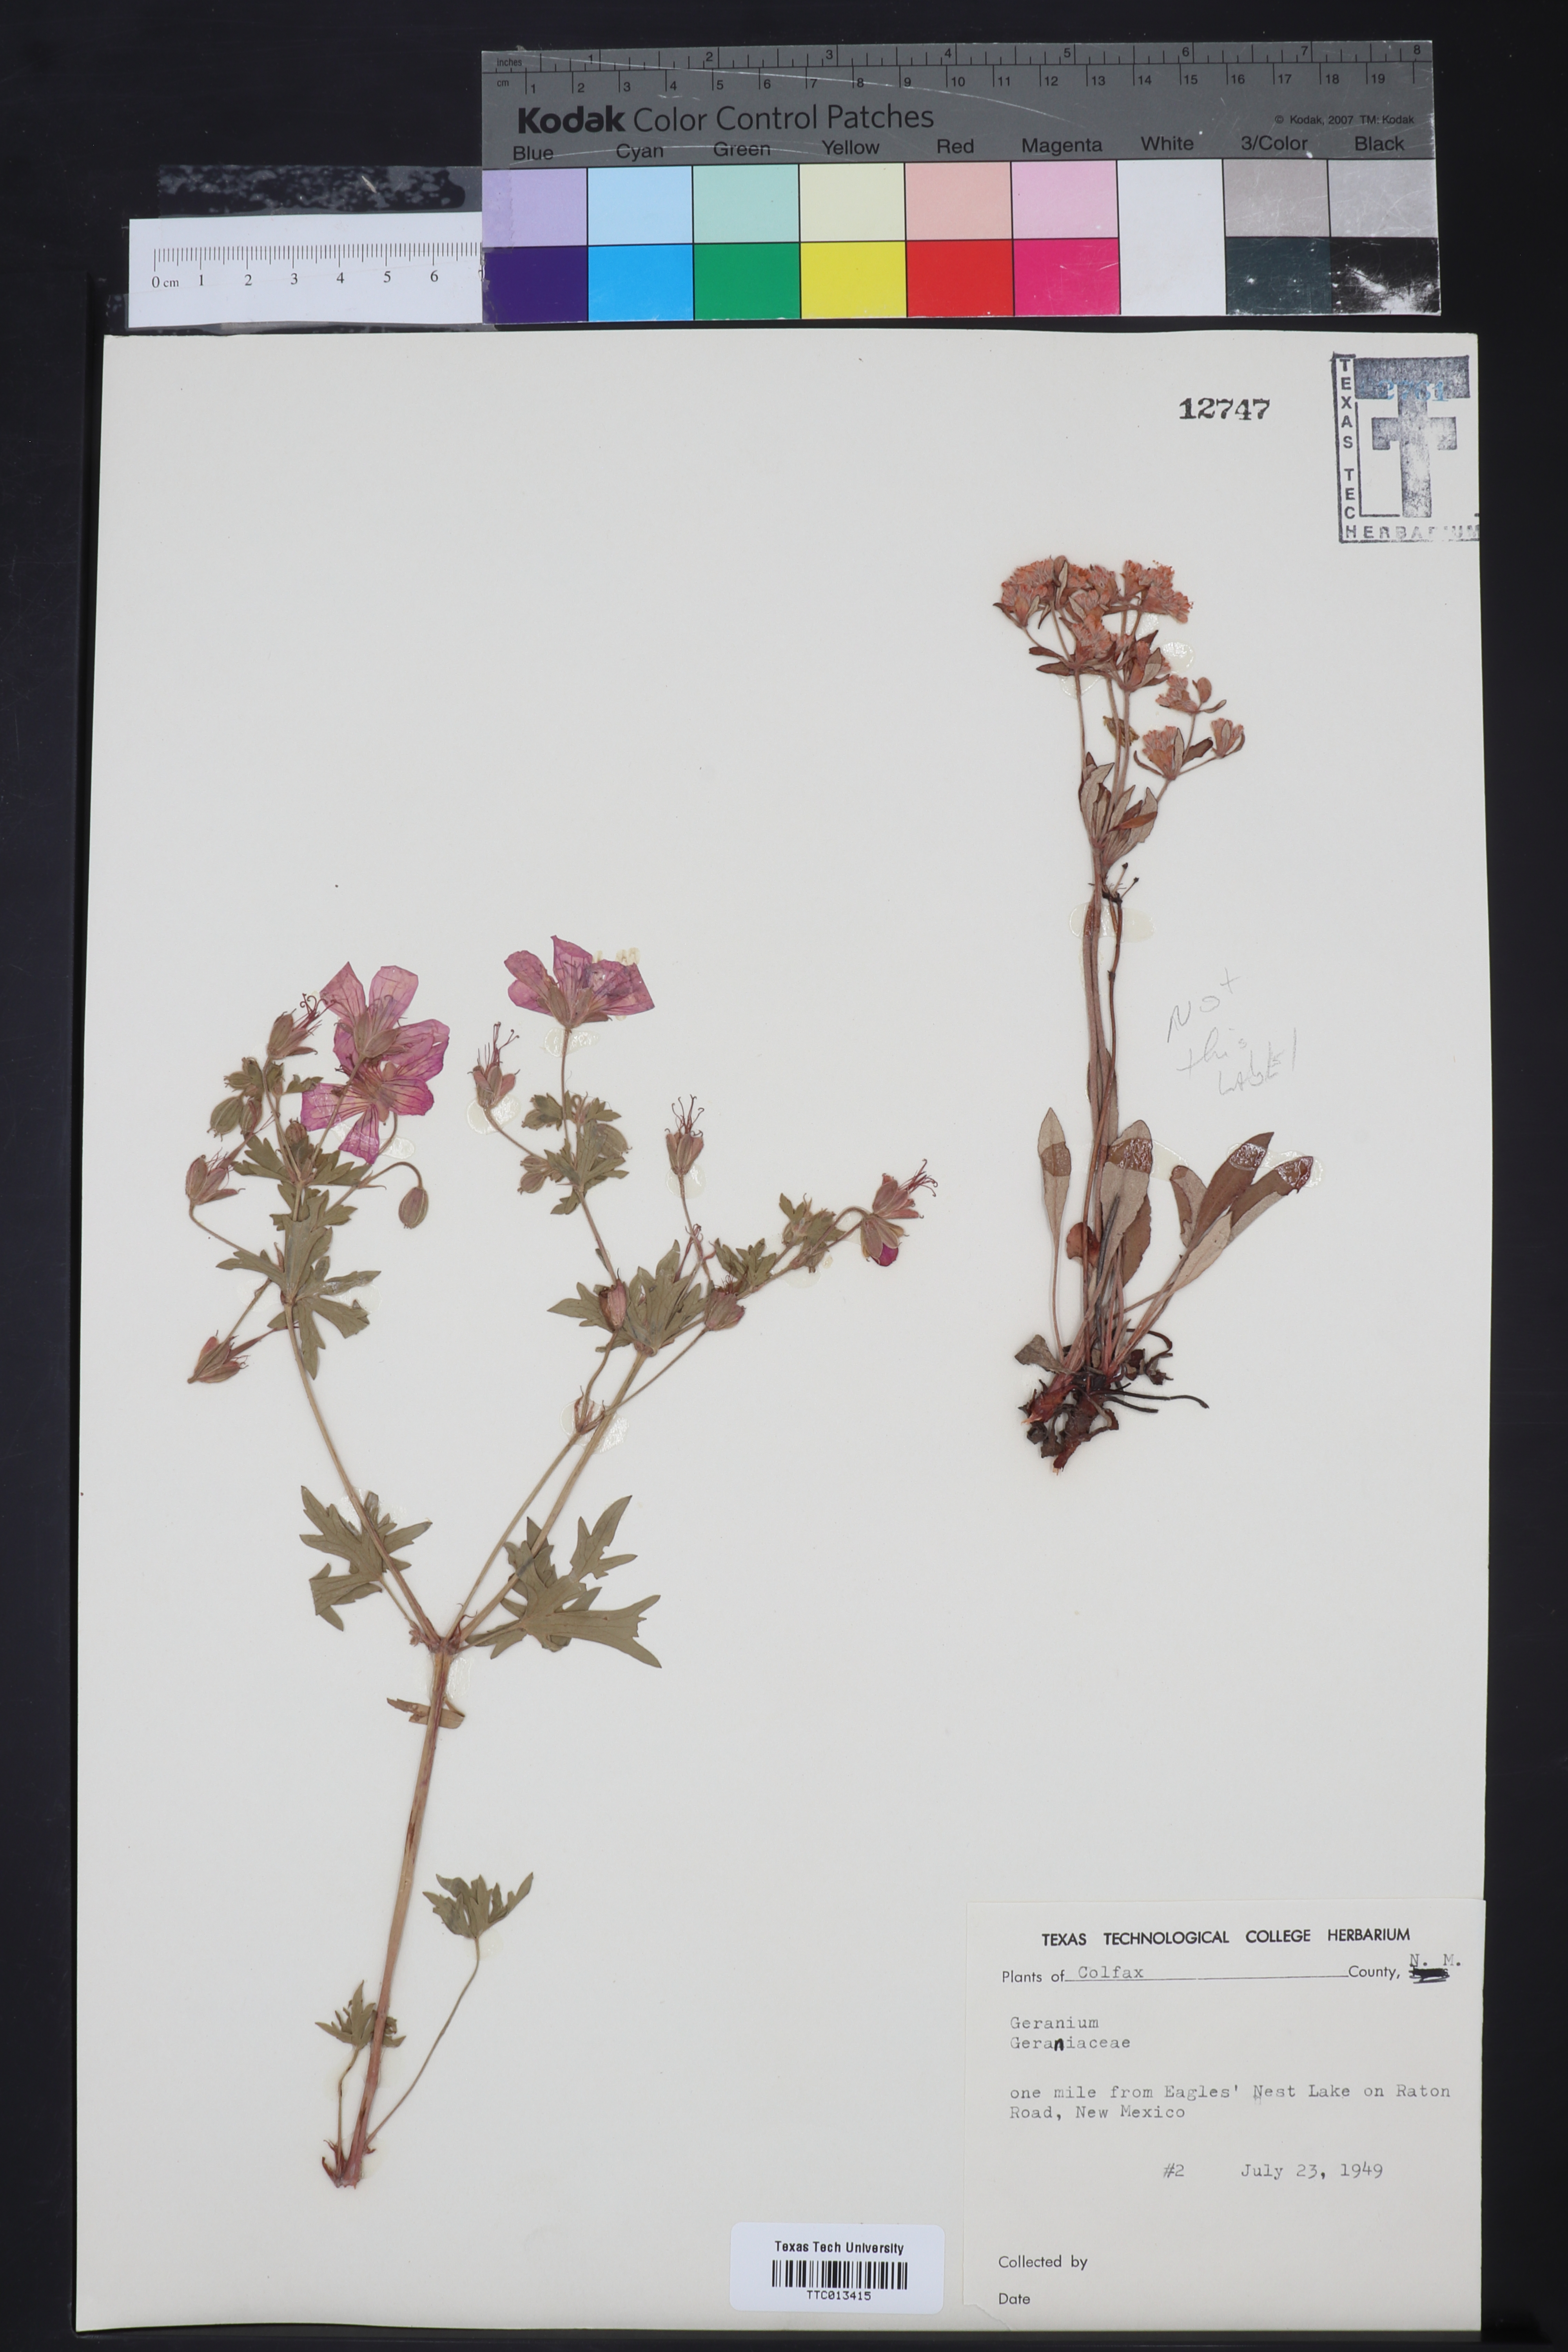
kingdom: Plantae
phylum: Tracheophyta
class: Magnoliopsida
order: Geraniales
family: Geraniaceae
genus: Geranium
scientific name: Geranium
